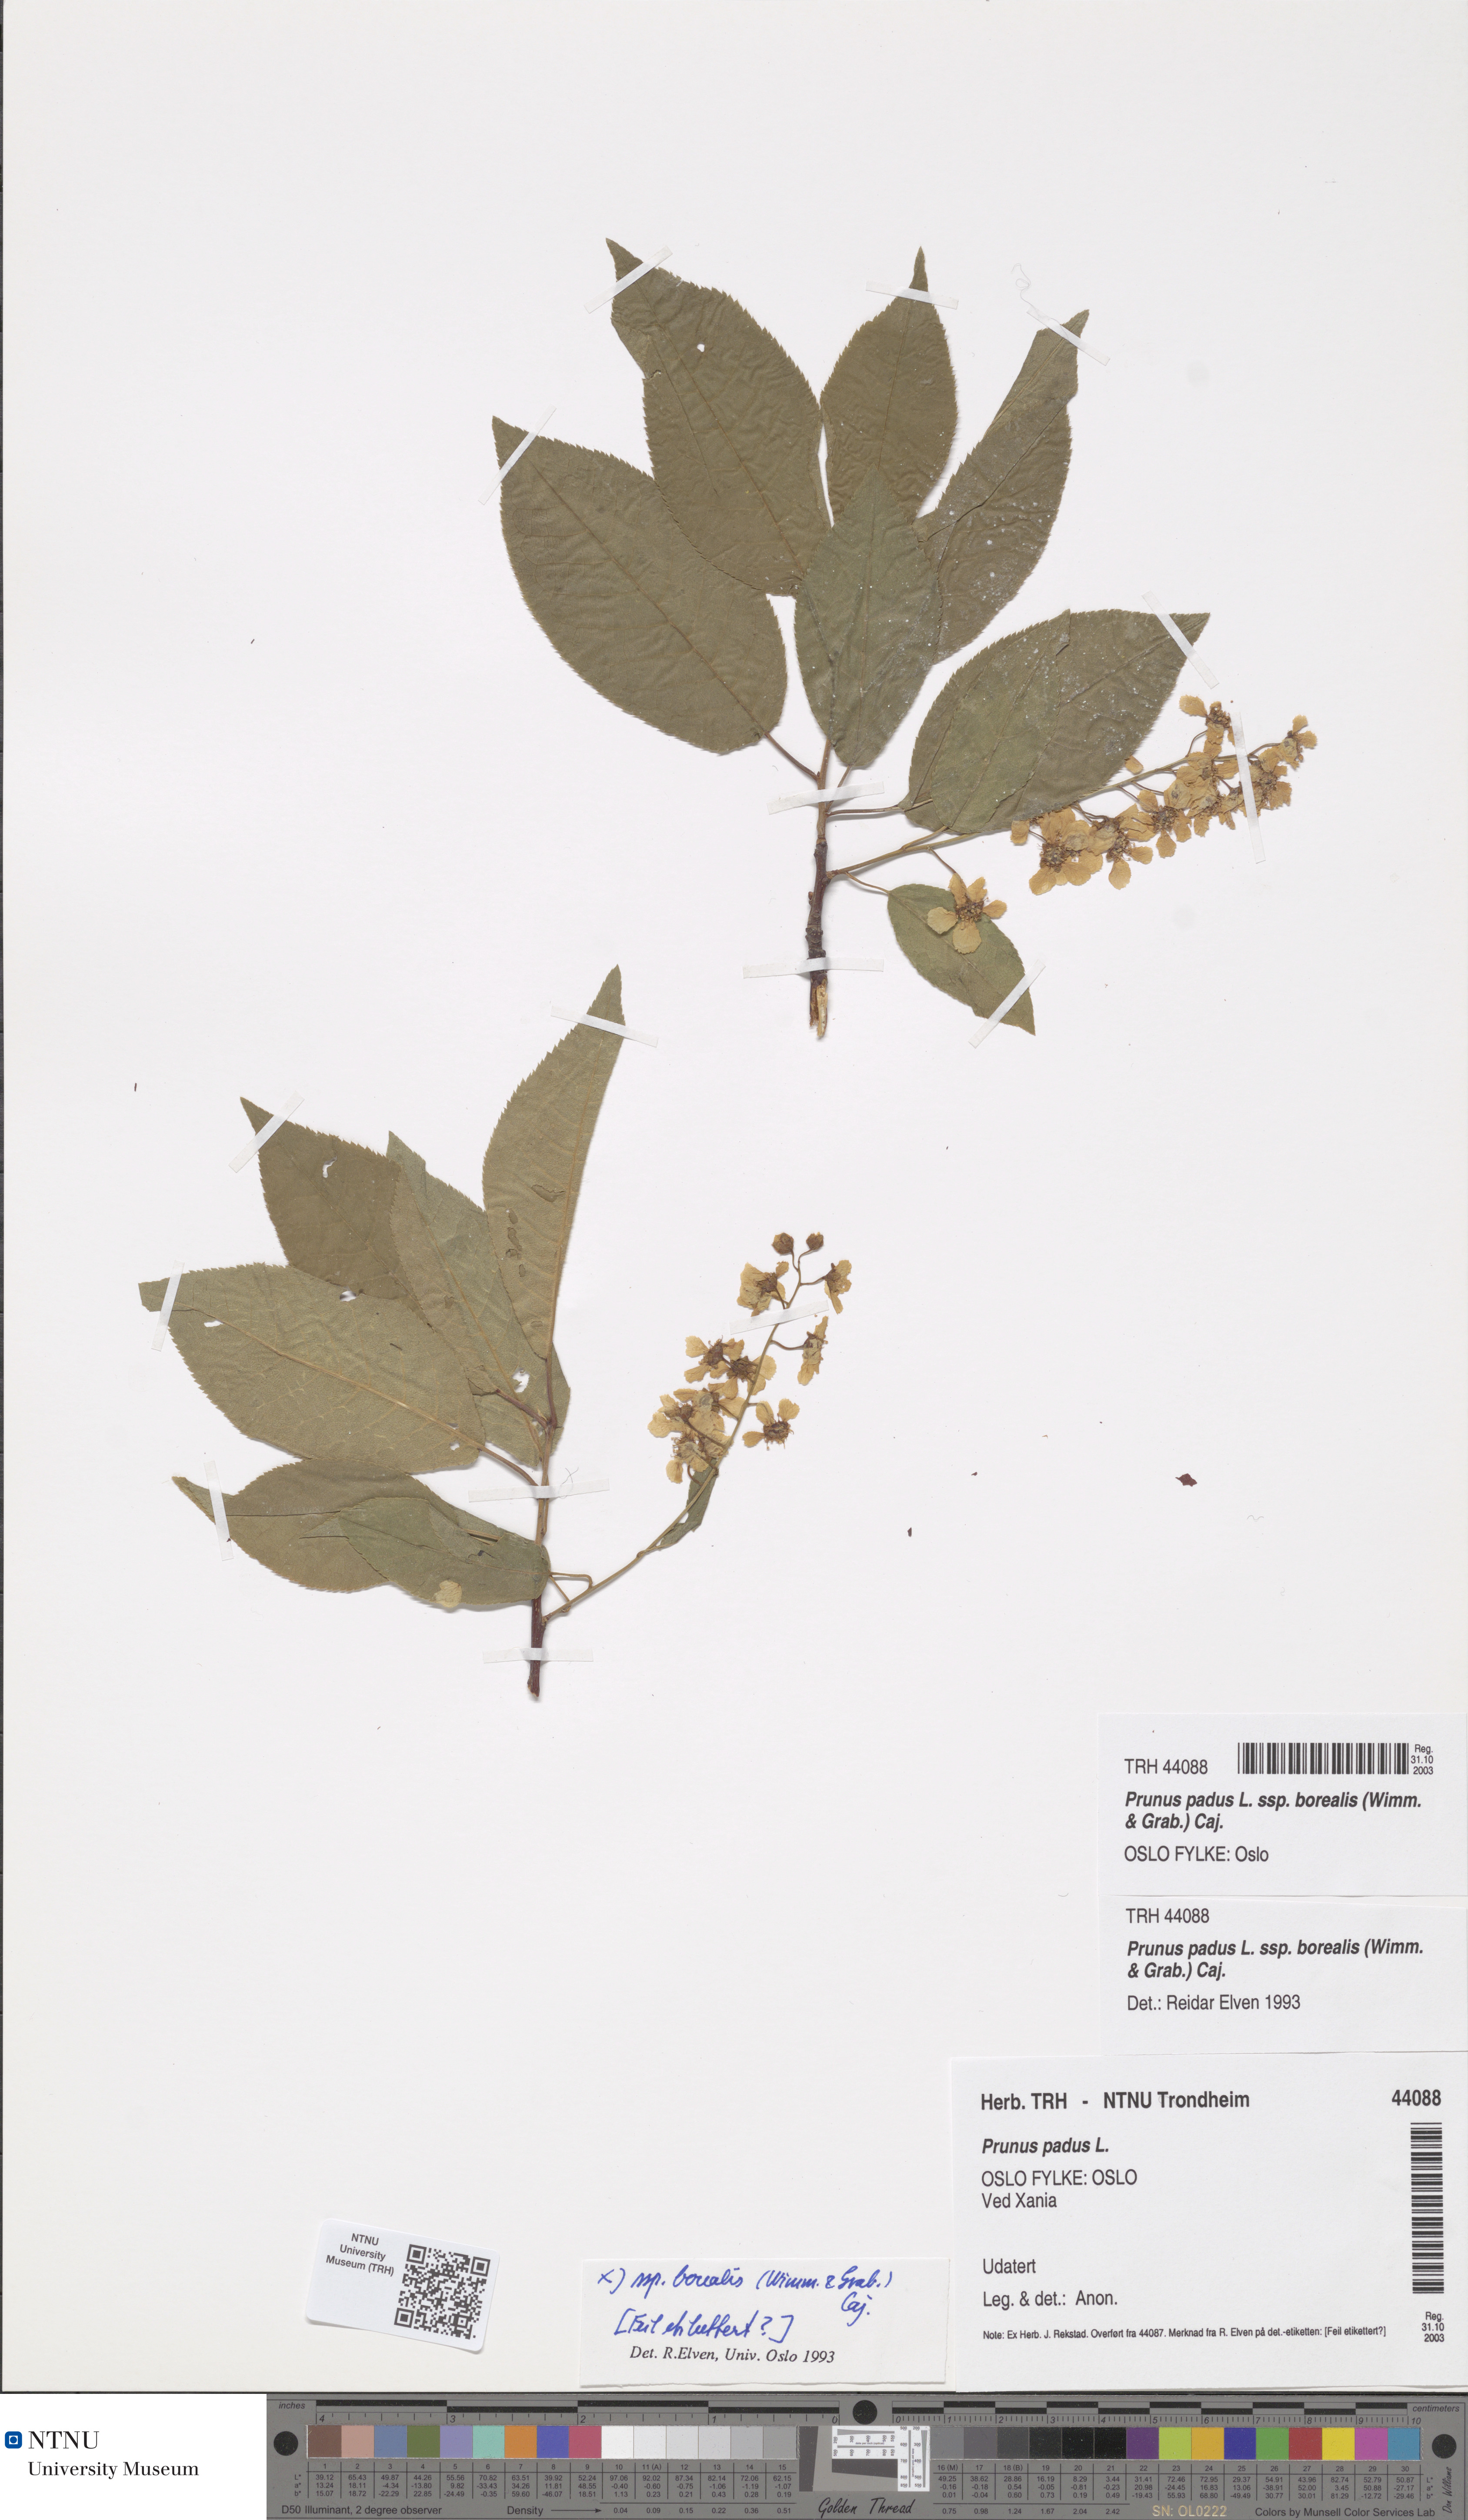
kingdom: Plantae
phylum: Tracheophyta
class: Magnoliopsida
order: Rosales
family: Rosaceae
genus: Prunus
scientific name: Prunus padus
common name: Bird cherry
